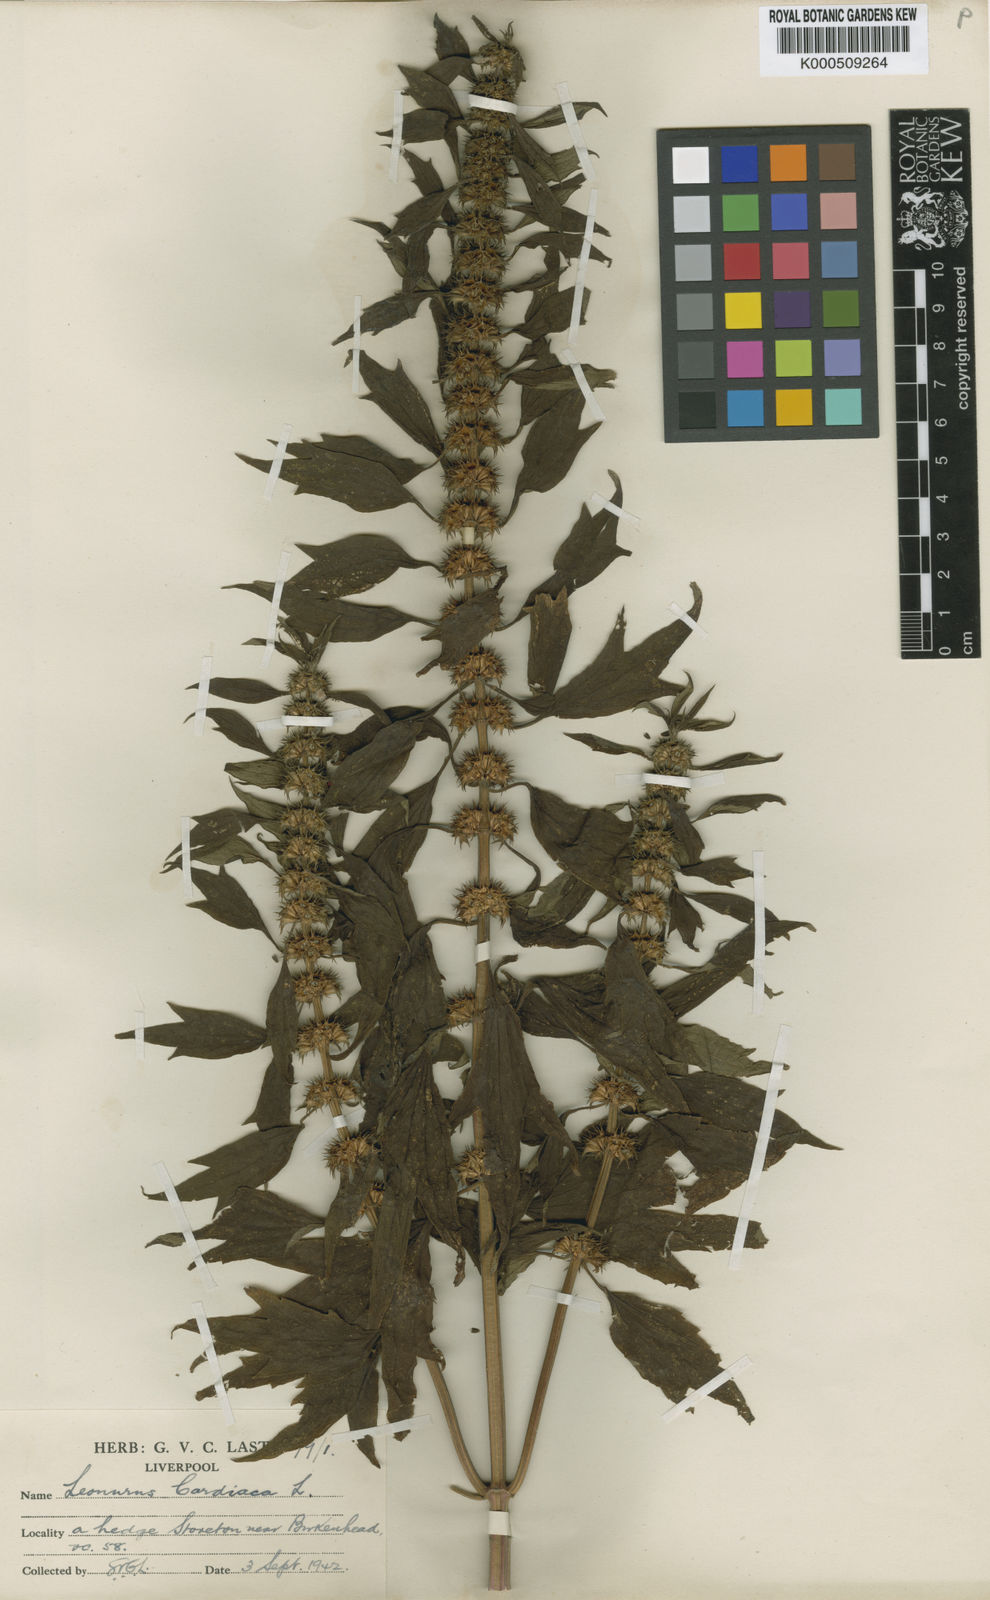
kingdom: Plantae
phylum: Tracheophyta
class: Magnoliopsida
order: Lamiales
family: Lamiaceae
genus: Leonurus
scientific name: Leonurus cardiaca
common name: Motherwort
